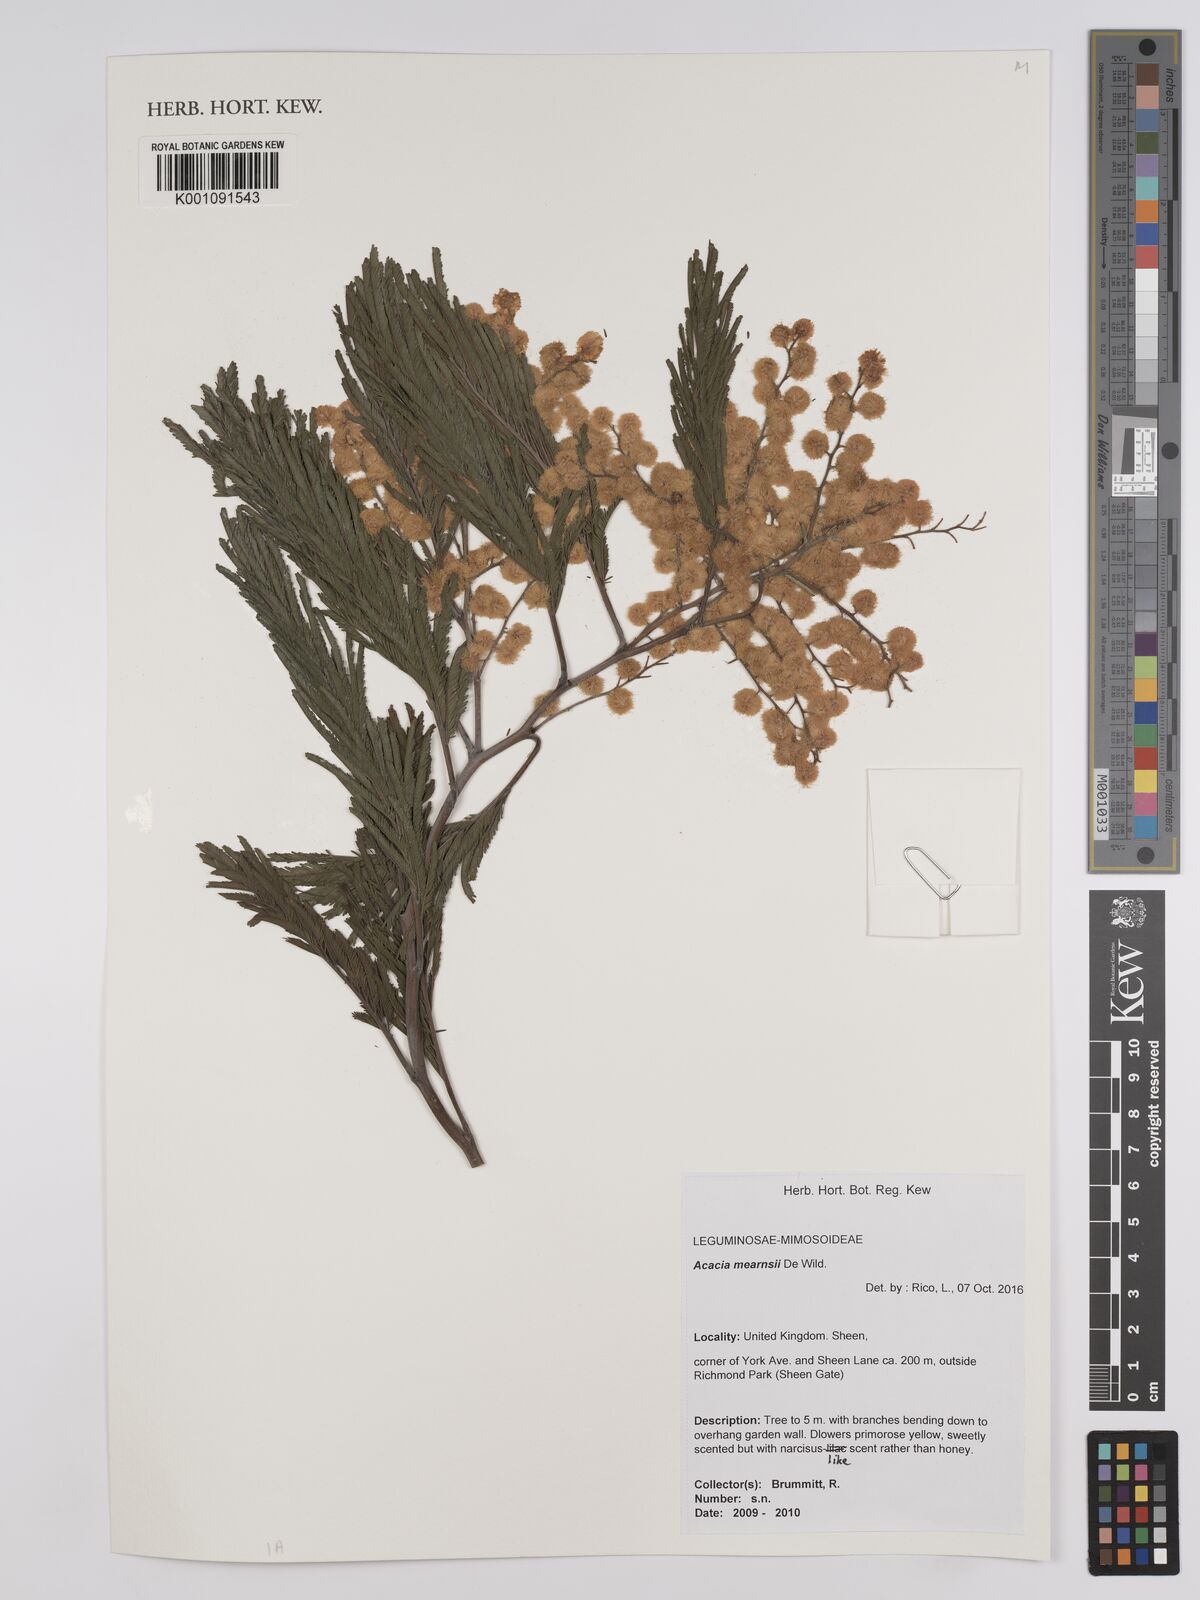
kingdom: Plantae
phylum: Tracheophyta
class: Magnoliopsida
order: Fabales
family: Fabaceae
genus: Acacia
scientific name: Acacia mearnsii
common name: Black wattle
